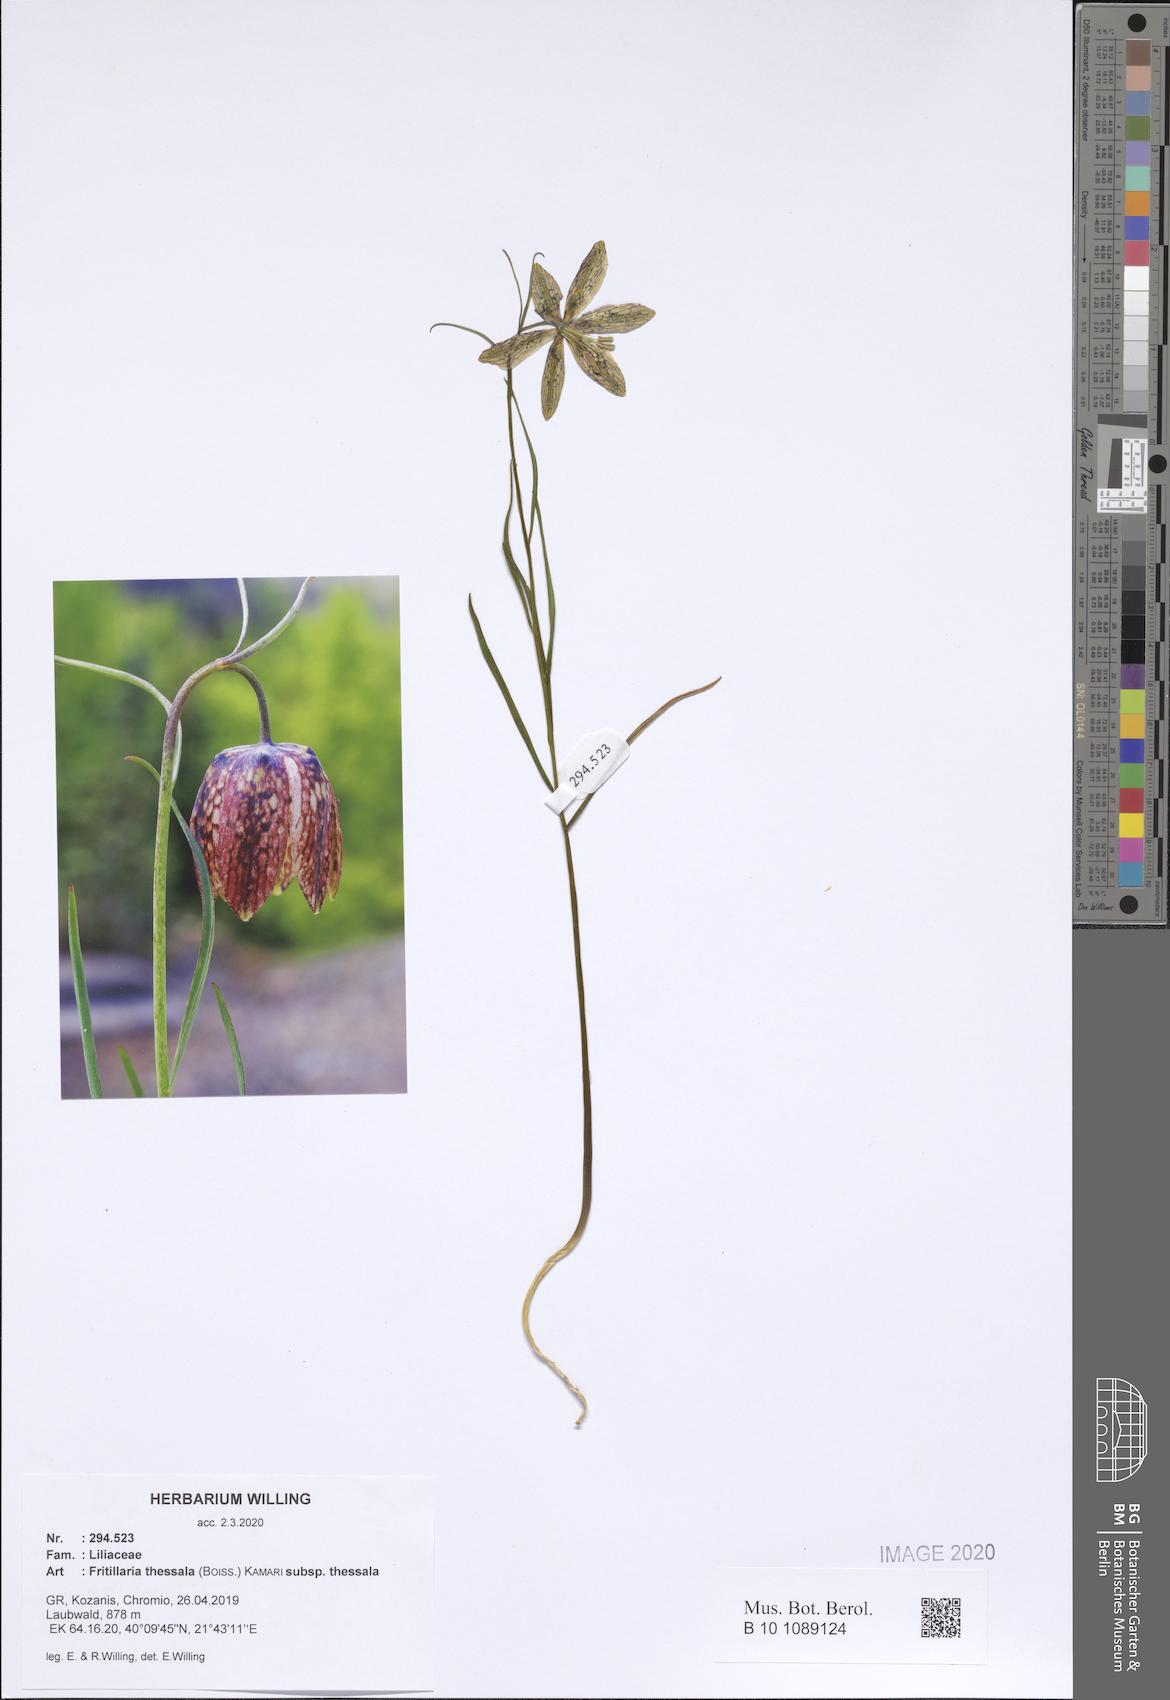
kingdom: Plantae
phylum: Tracheophyta
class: Liliopsida
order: Liliales
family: Liliaceae
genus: Fritillaria
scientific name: Fritillaria graeca
